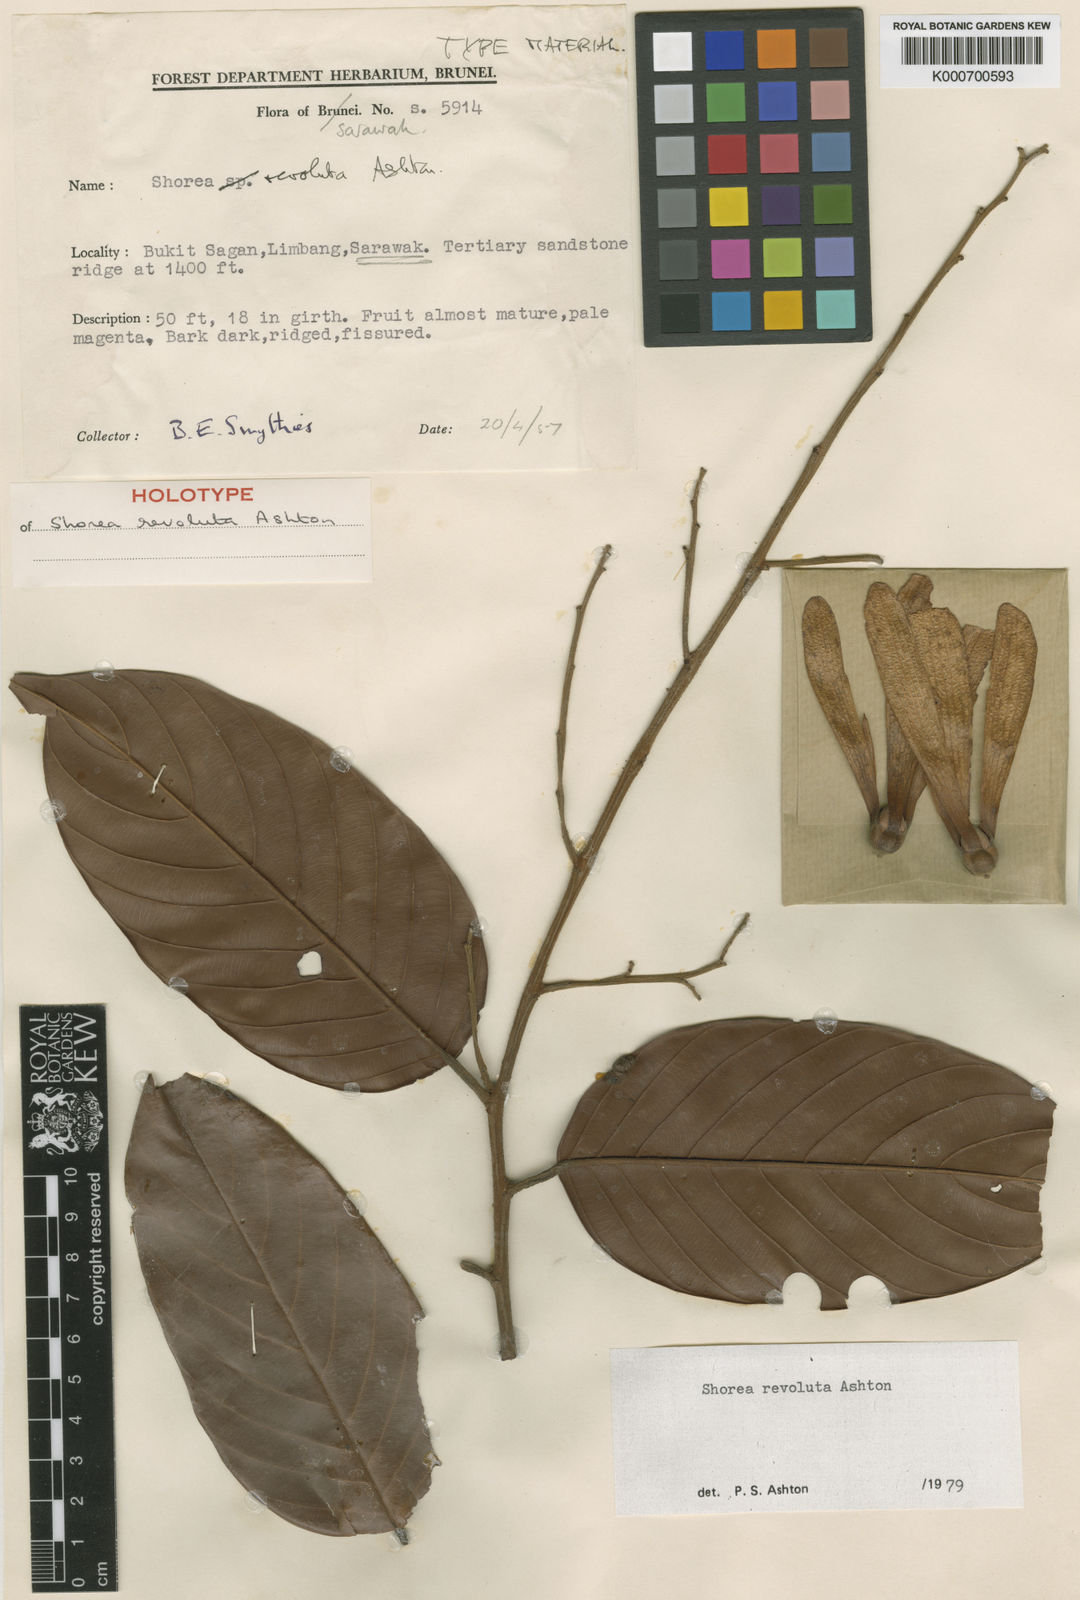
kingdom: Plantae
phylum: Tracheophyta
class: Magnoliopsida
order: Malvales
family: Dipterocarpaceae
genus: Shorea
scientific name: Shorea revoluta
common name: Light red meranti
